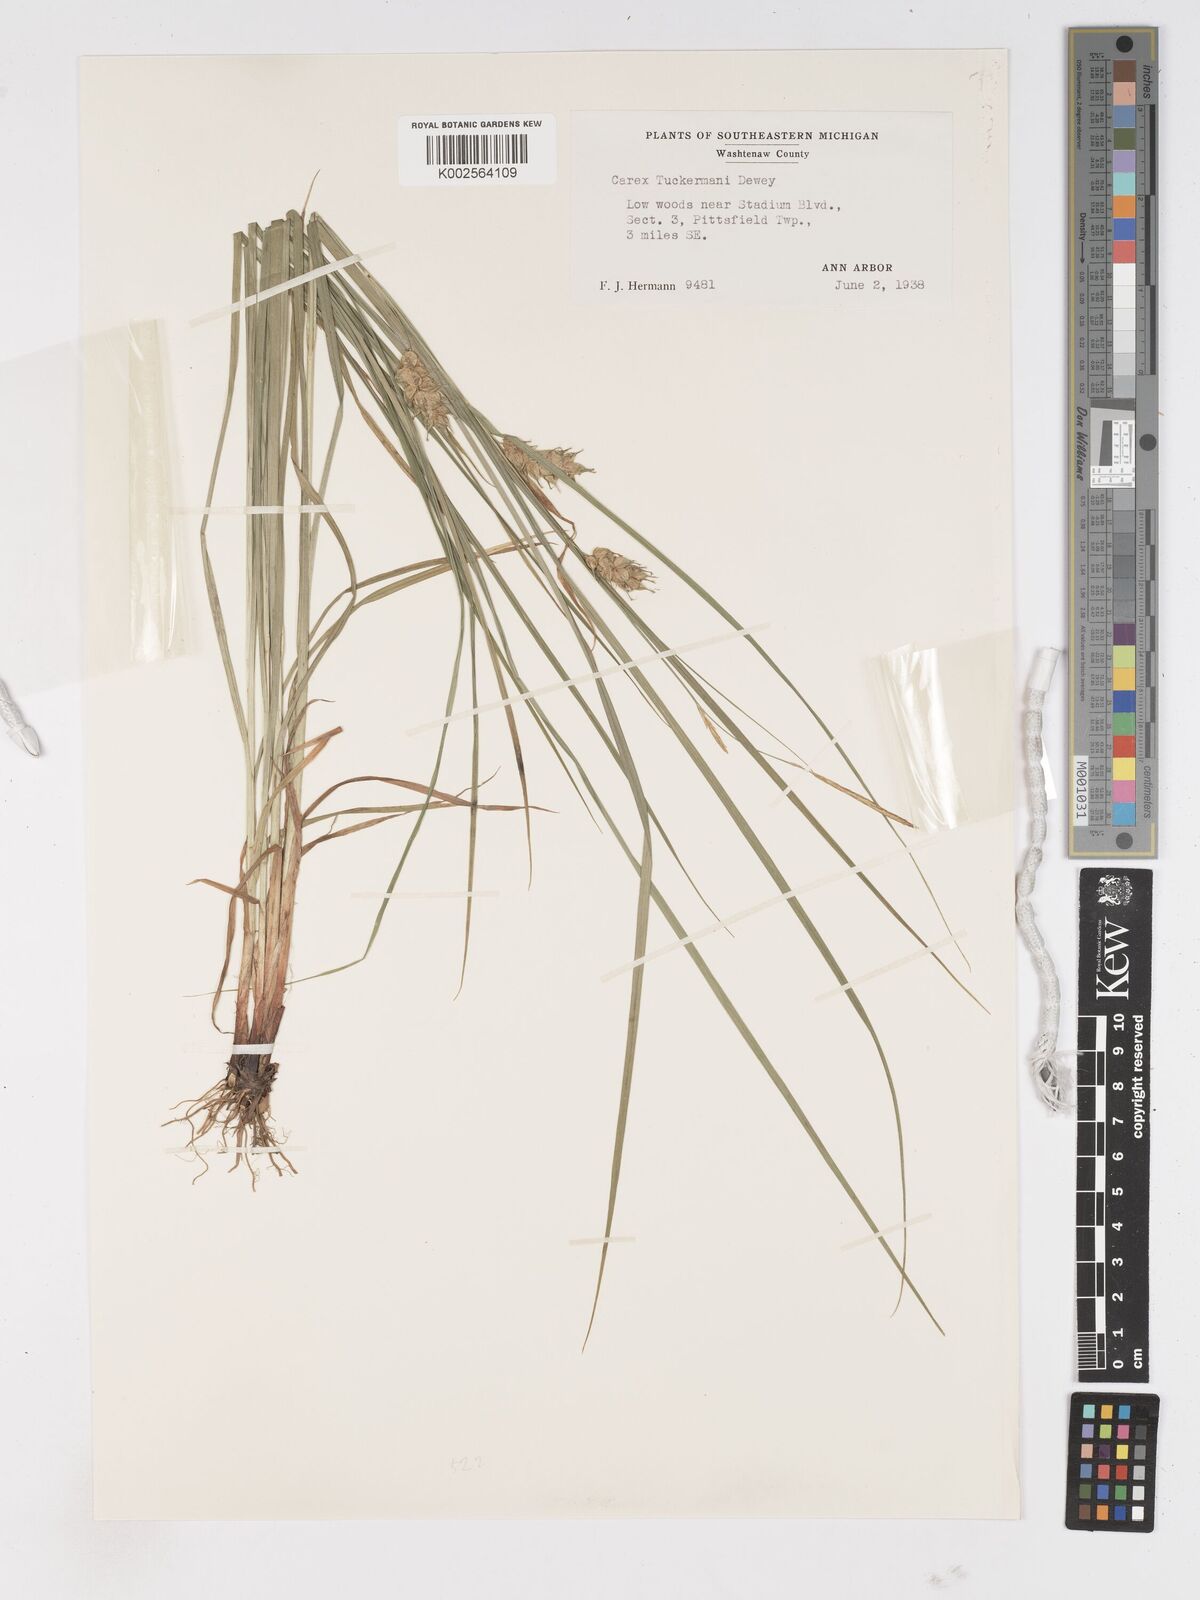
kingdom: Plantae
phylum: Tracheophyta
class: Liliopsida
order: Poales
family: Cyperaceae
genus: Carex
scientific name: Carex tuckermanii
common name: Tuckerman's sedge
